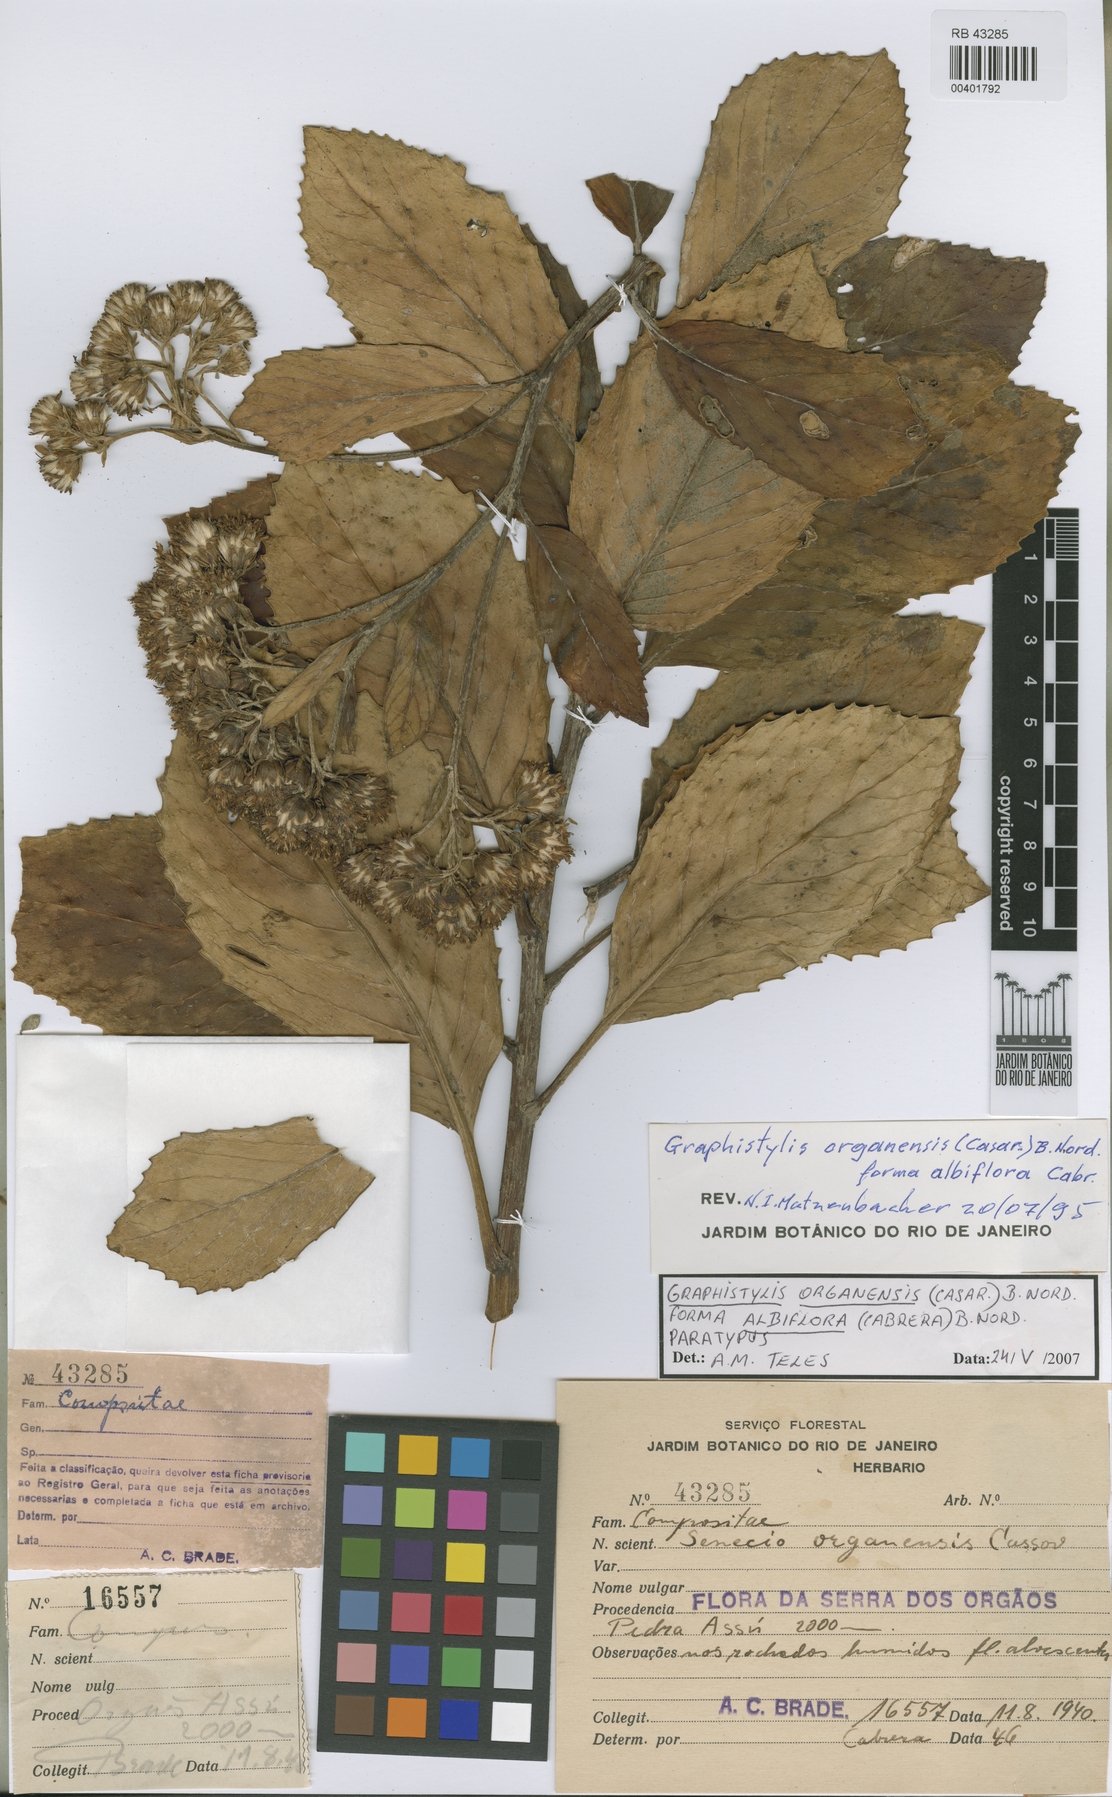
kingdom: Plantae
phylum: Tracheophyta
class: Magnoliopsida
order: Asterales
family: Asteraceae
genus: Graphistylis
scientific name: Graphistylis organensis
